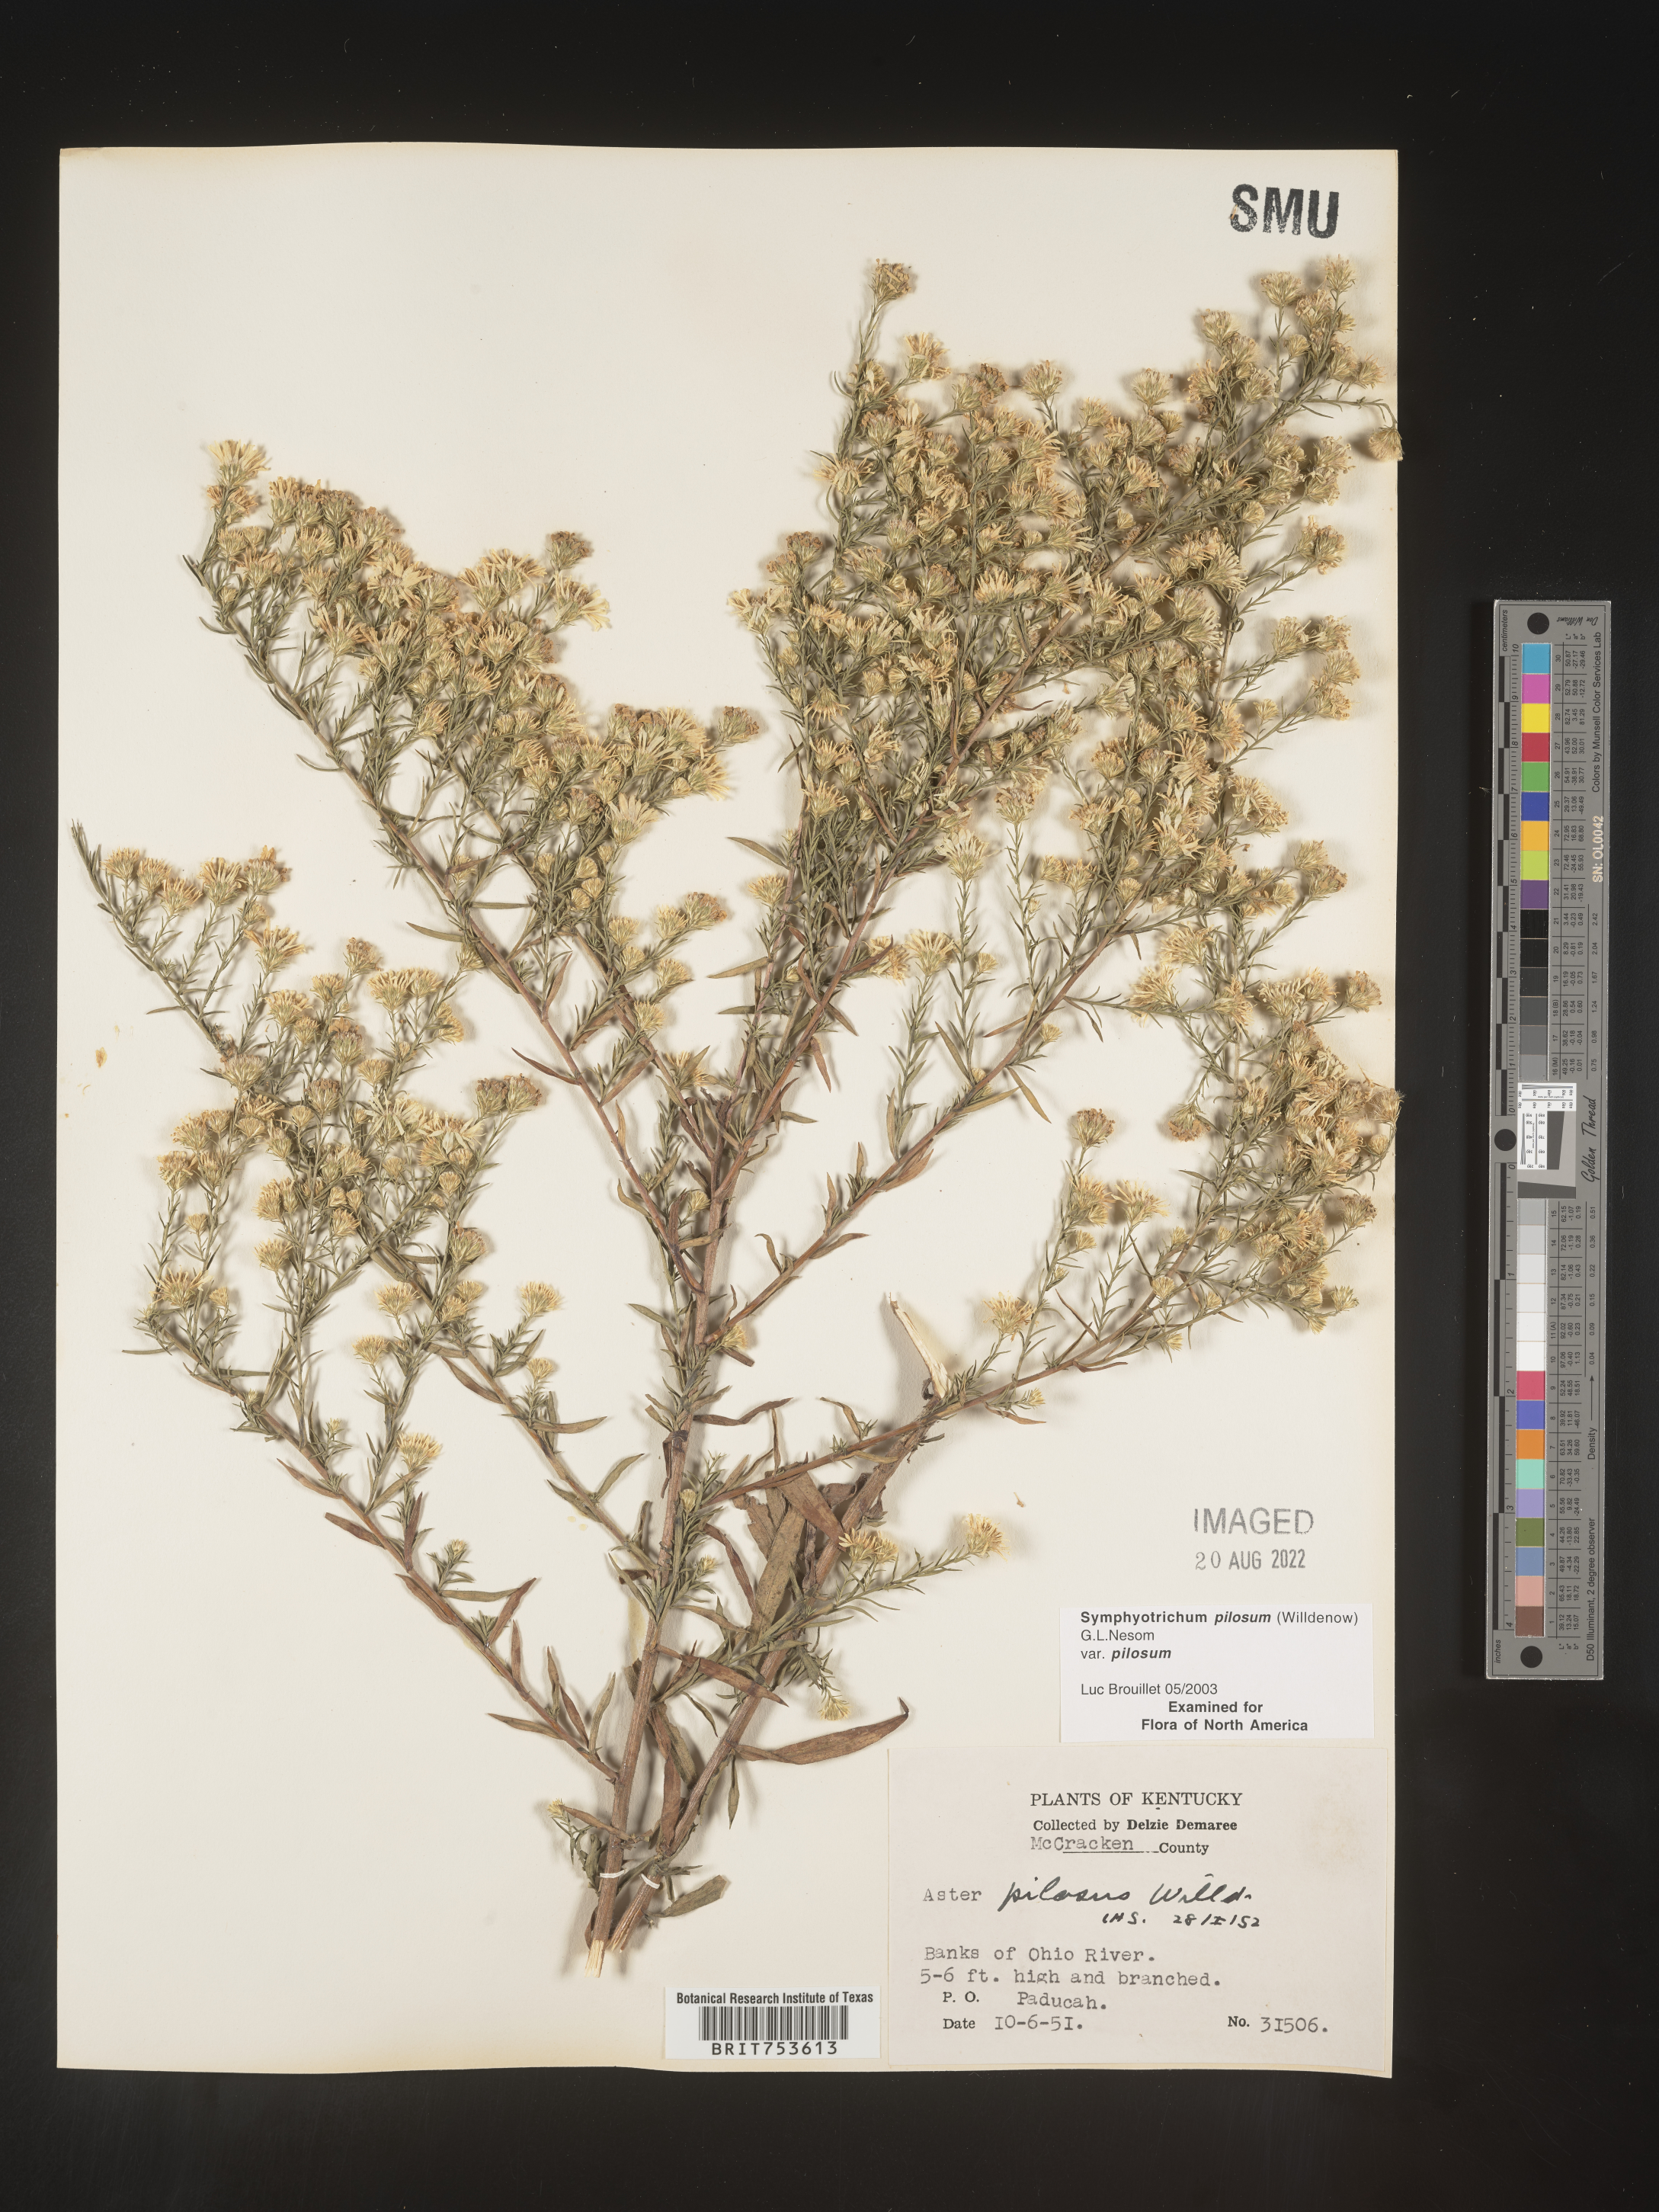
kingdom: Plantae
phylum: Tracheophyta
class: Magnoliopsida
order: Asterales
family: Asteraceae
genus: Symphyotrichum
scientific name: Symphyotrichum pilosum
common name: Awl aster
